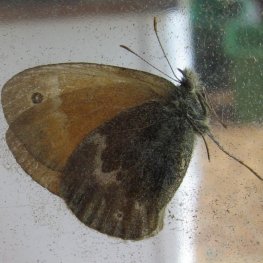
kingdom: Animalia
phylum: Arthropoda
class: Insecta
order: Lepidoptera
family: Nymphalidae
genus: Coenonympha
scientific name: Coenonympha tullia
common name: Large Heath
